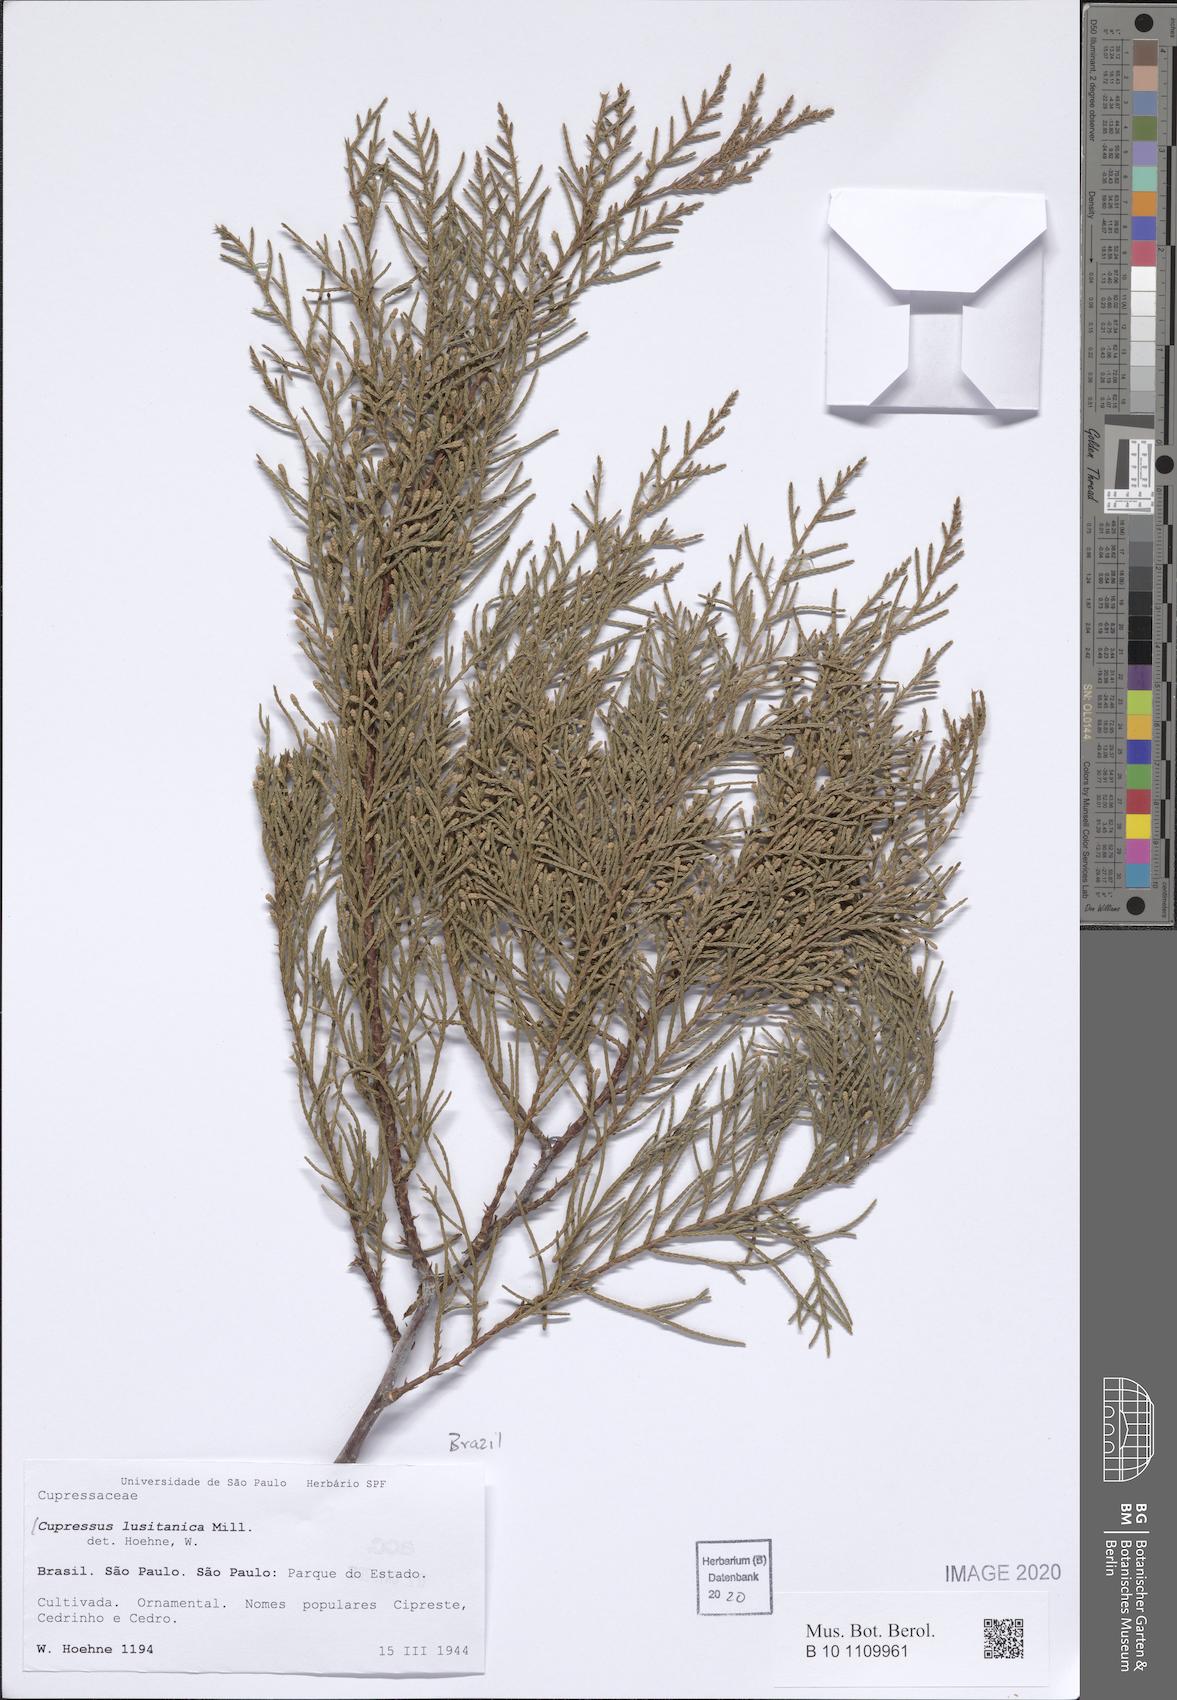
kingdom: Plantae
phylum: Tracheophyta
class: Pinopsida
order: Pinales
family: Cupressaceae
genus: Cupressus
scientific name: Cupressus lusitanica
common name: Mexican cypress
